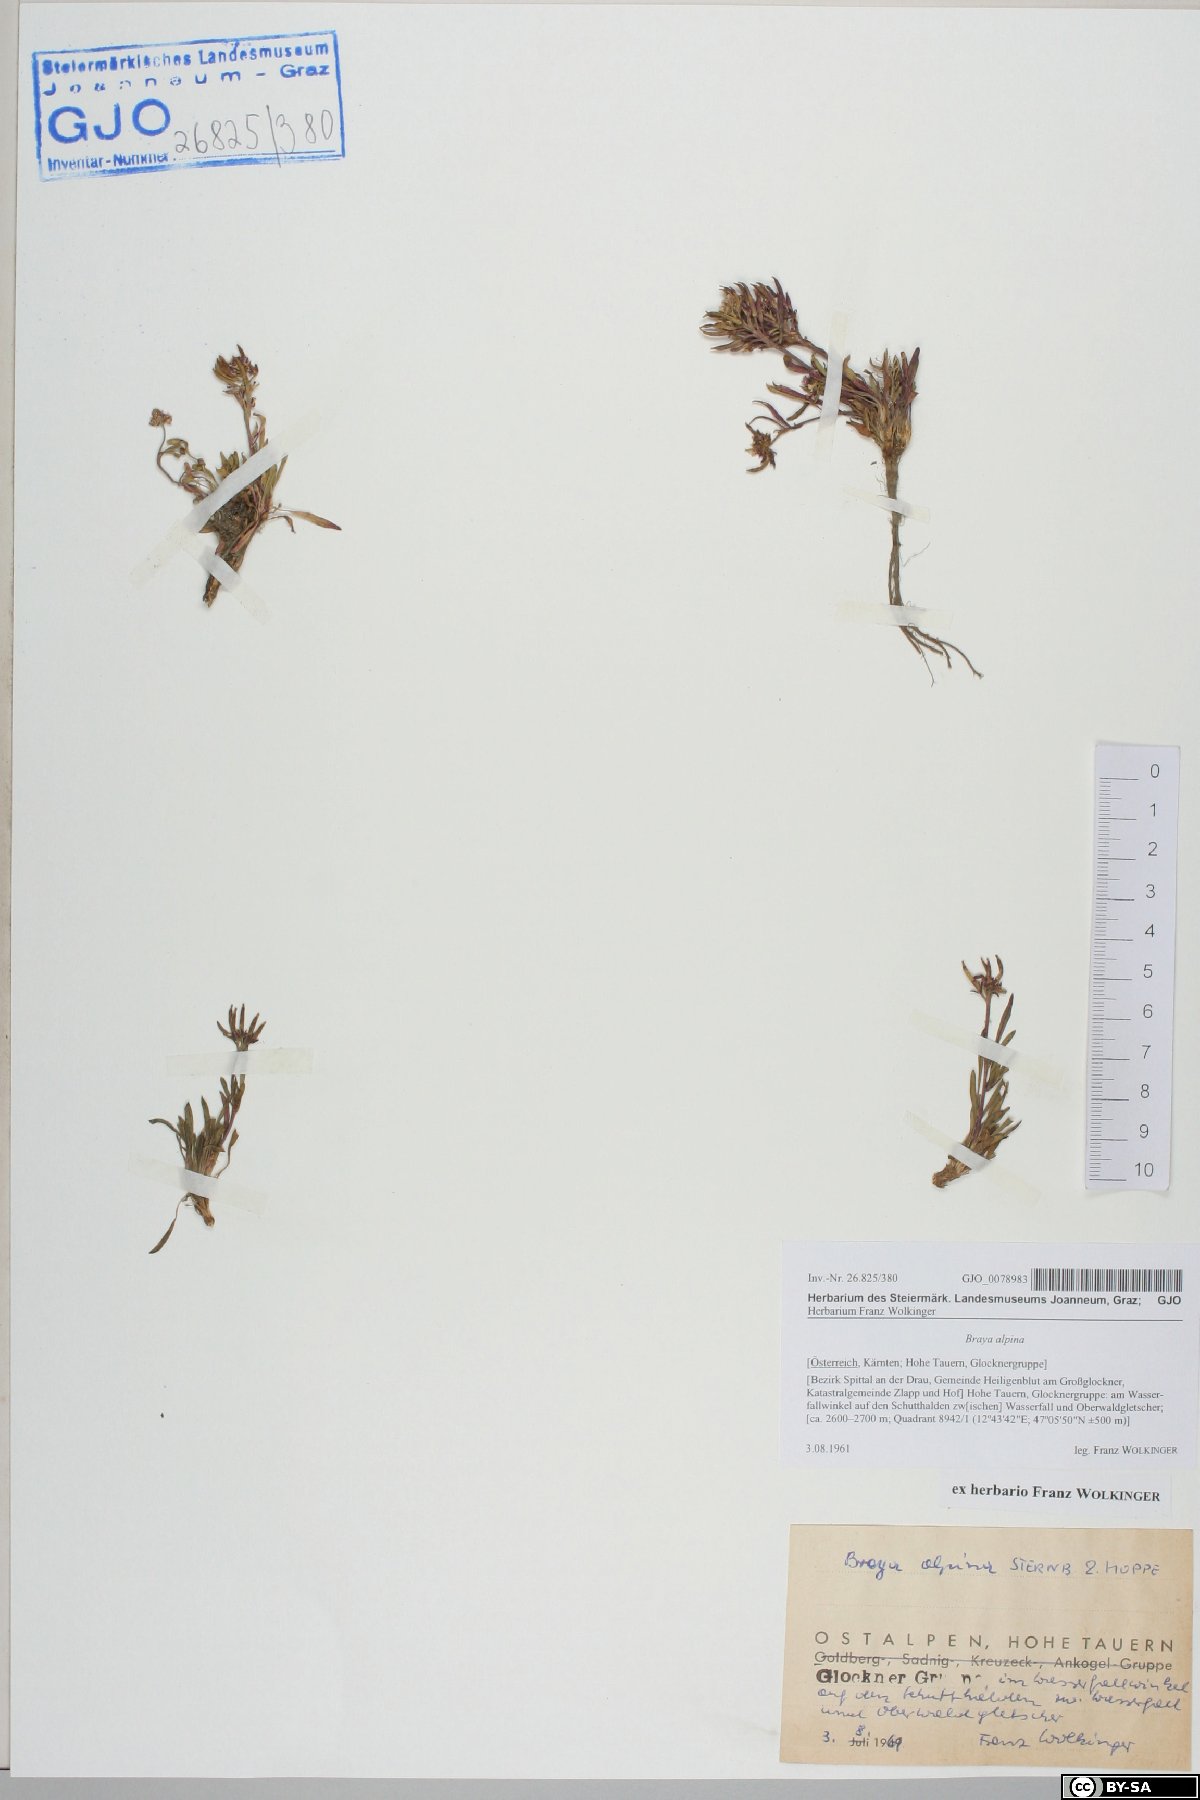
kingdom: Plantae
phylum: Tracheophyta
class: Magnoliopsida
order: Brassicales
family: Brassicaceae
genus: Braya
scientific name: Braya alpina
